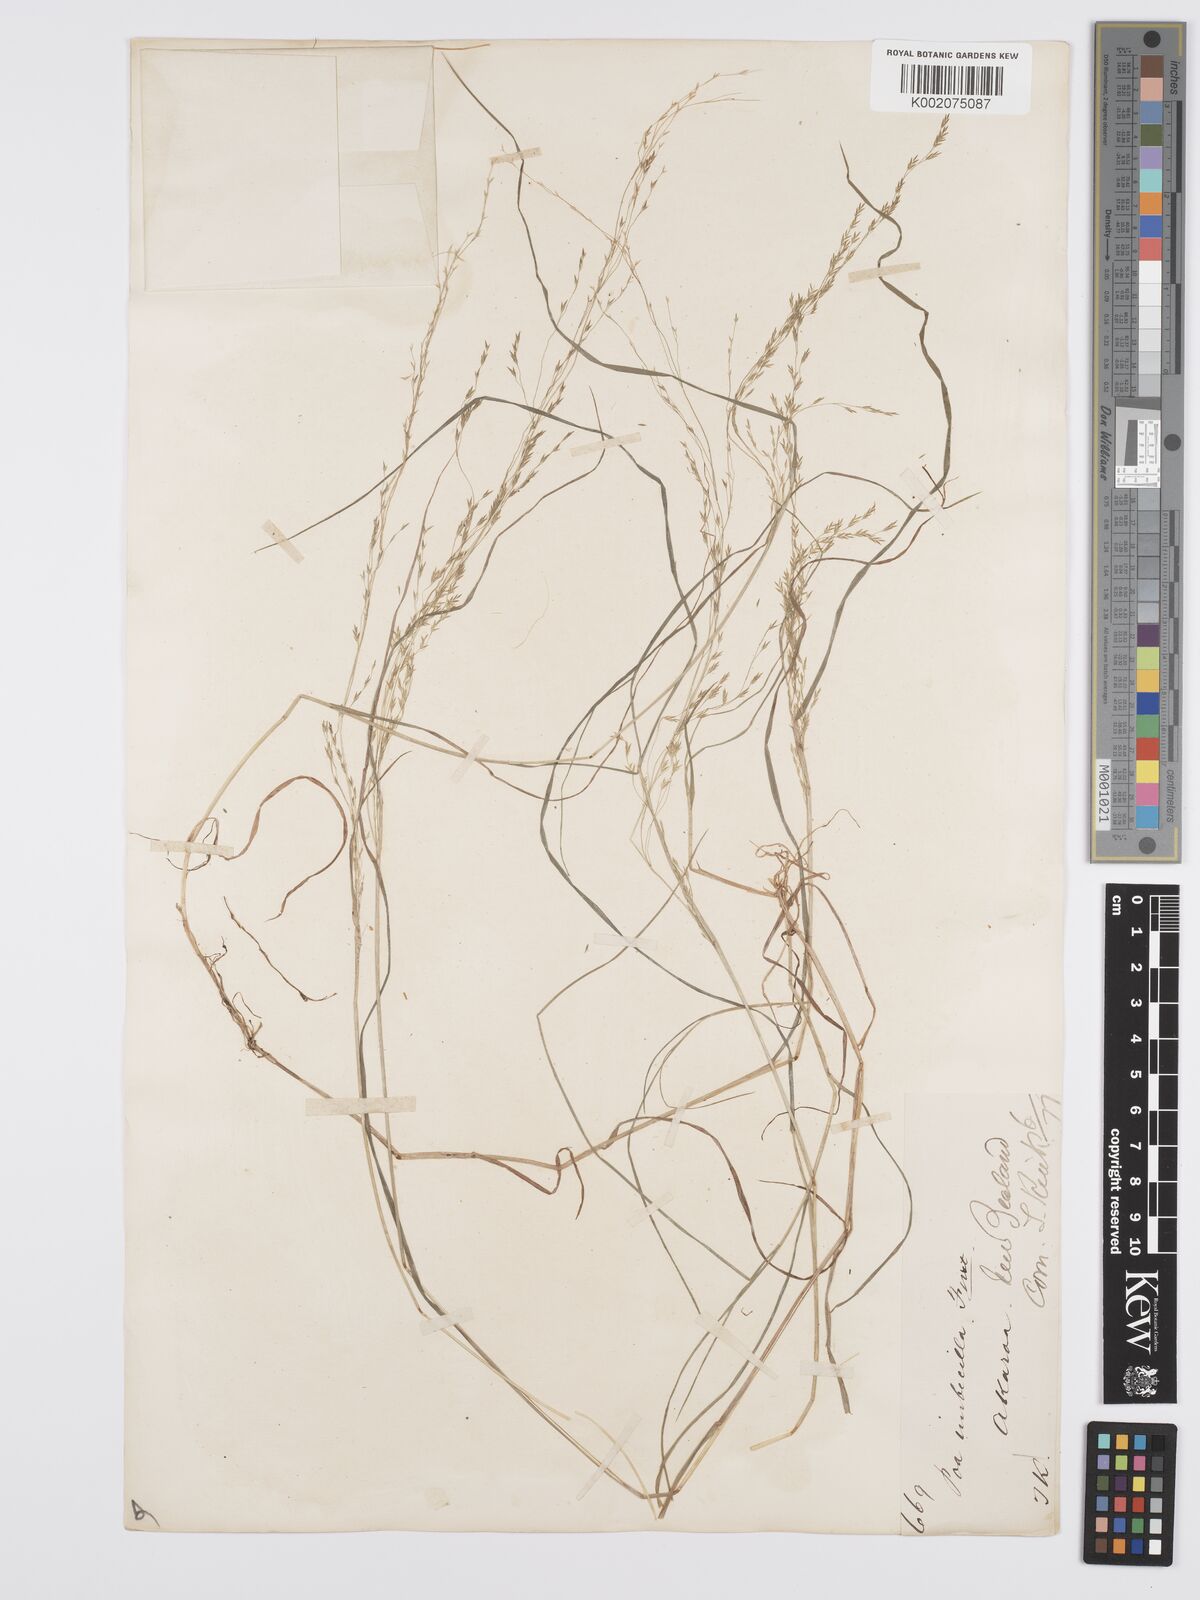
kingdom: Plantae
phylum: Tracheophyta
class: Liliopsida
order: Poales
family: Poaceae
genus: Poa
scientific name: Poa matthewsii
